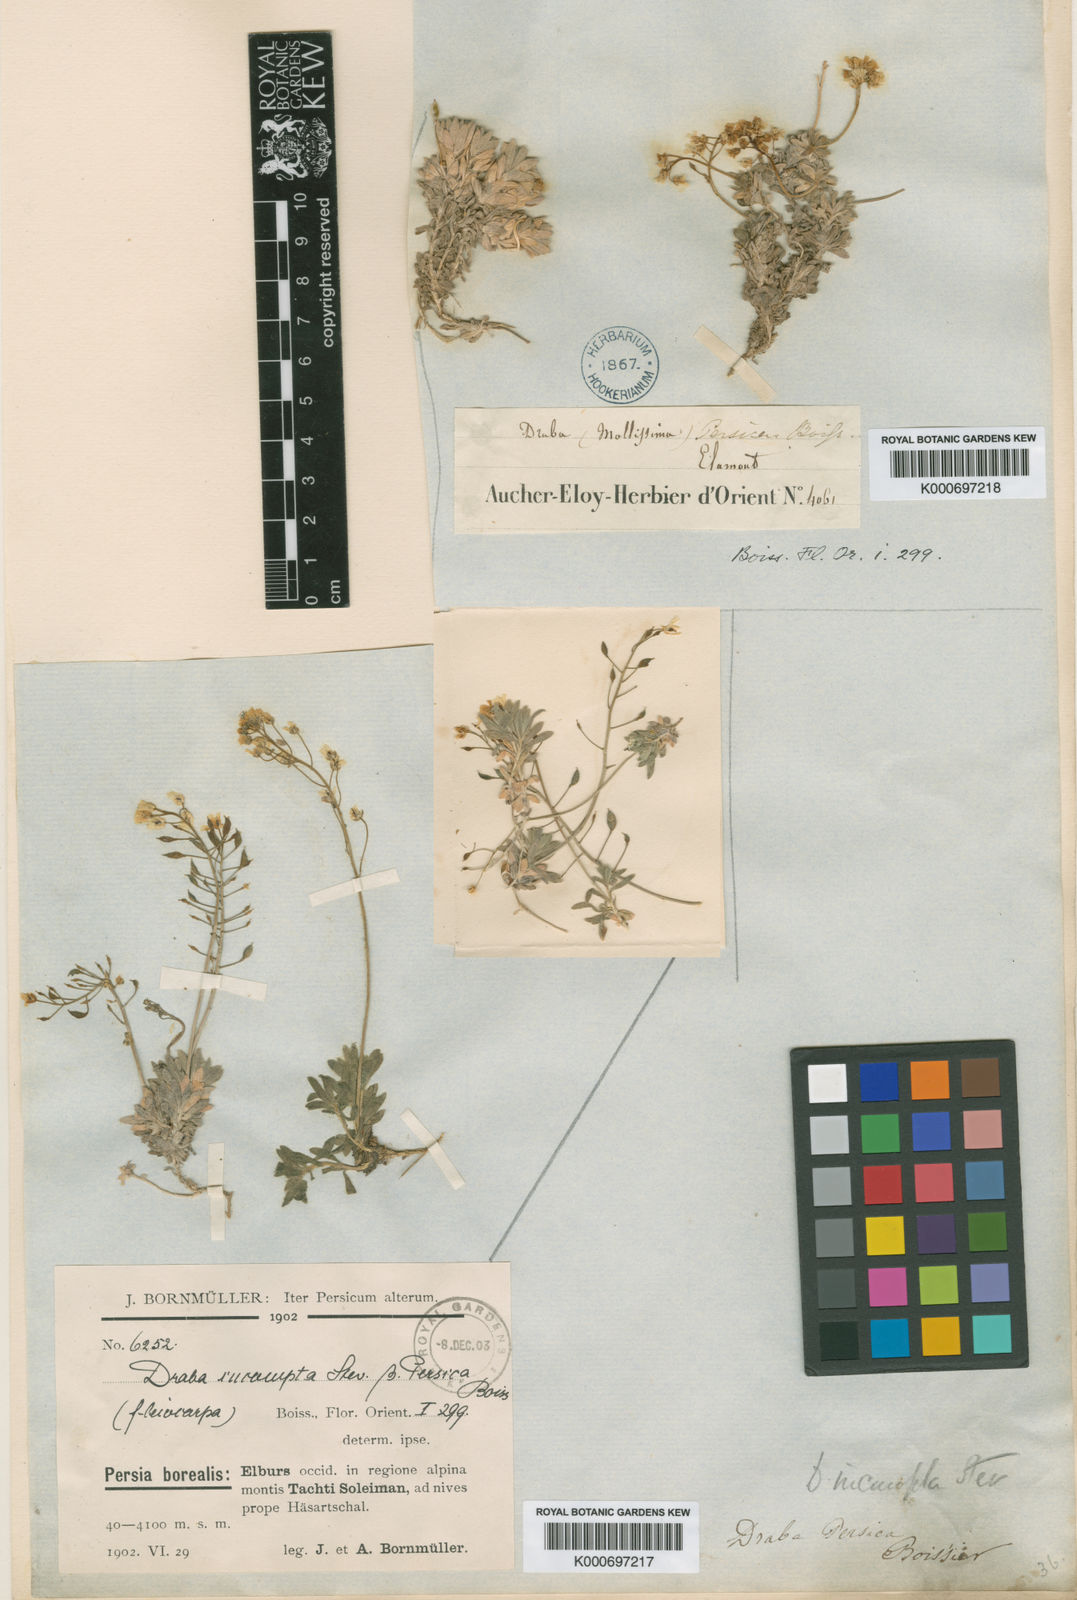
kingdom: Plantae
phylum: Tracheophyta
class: Magnoliopsida
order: Brassicales
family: Brassicaceae
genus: Draba
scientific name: Draba pulchella
